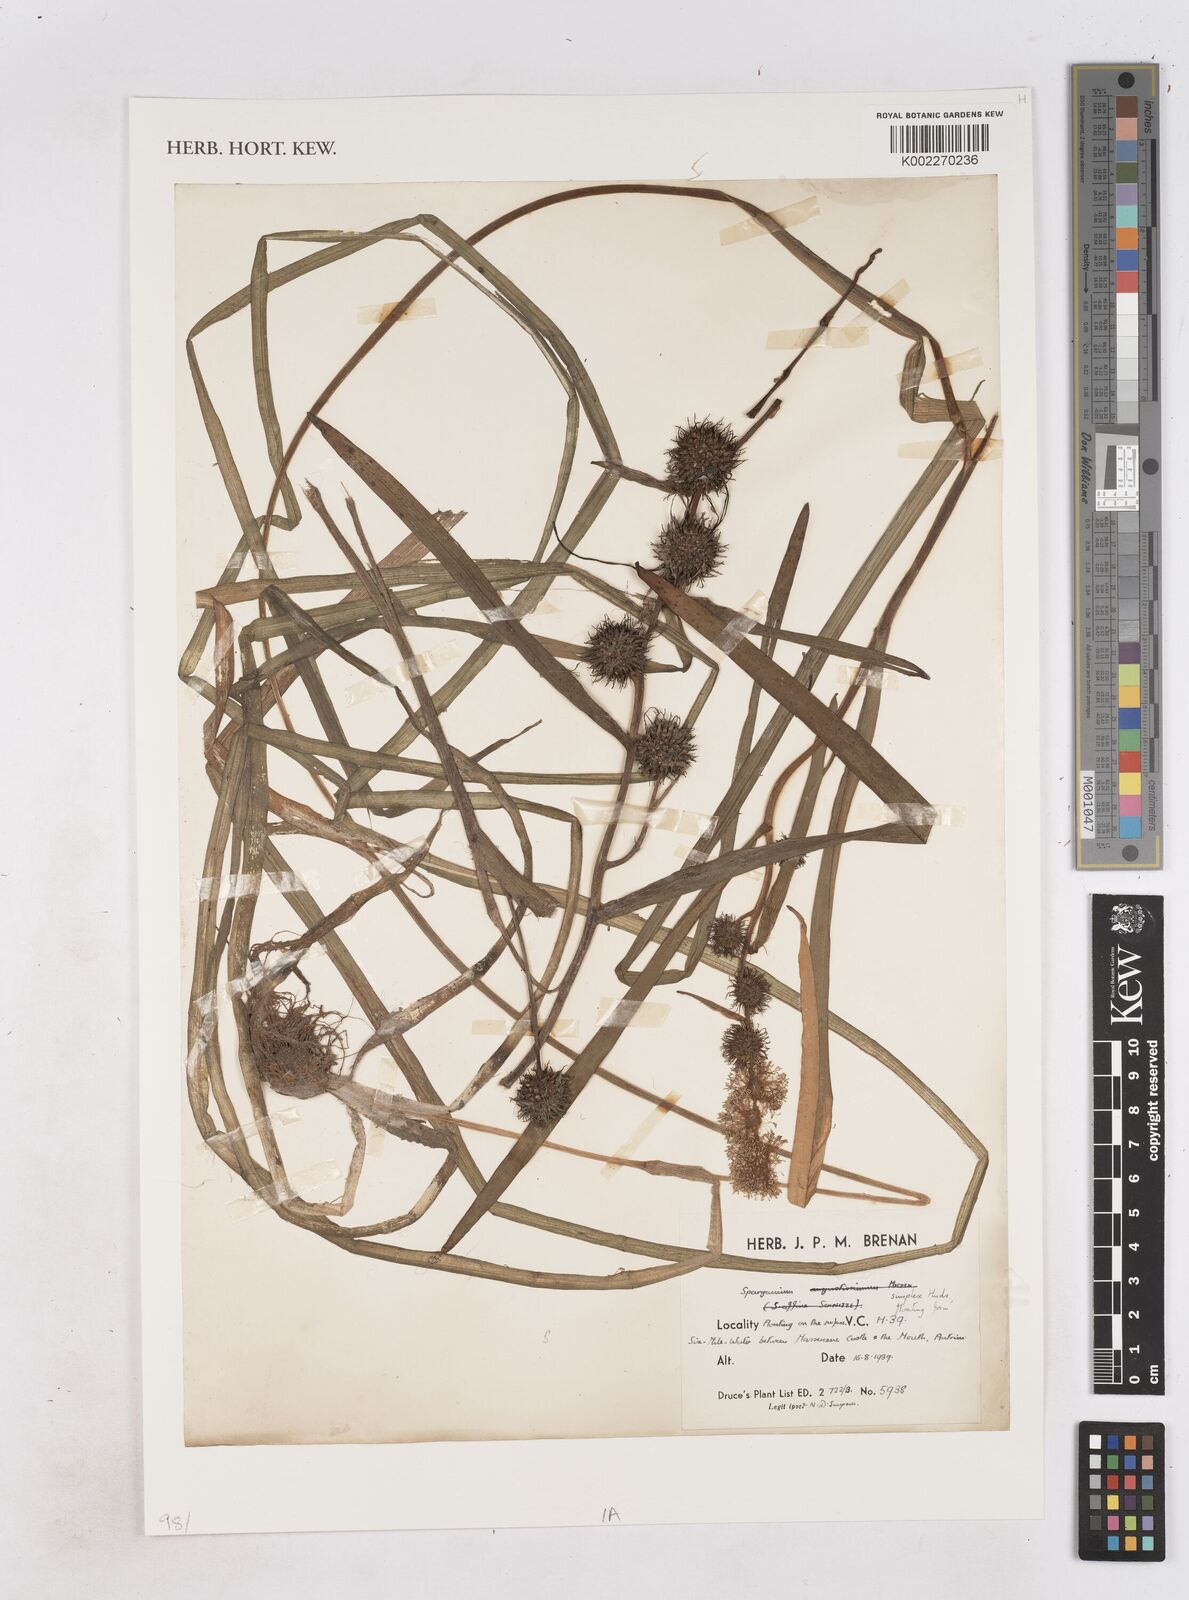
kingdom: Plantae
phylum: Tracheophyta
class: Liliopsida
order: Poales
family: Typhaceae
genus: Sparganium
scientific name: Sparganium emersum
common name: Unbranched bur-reed
